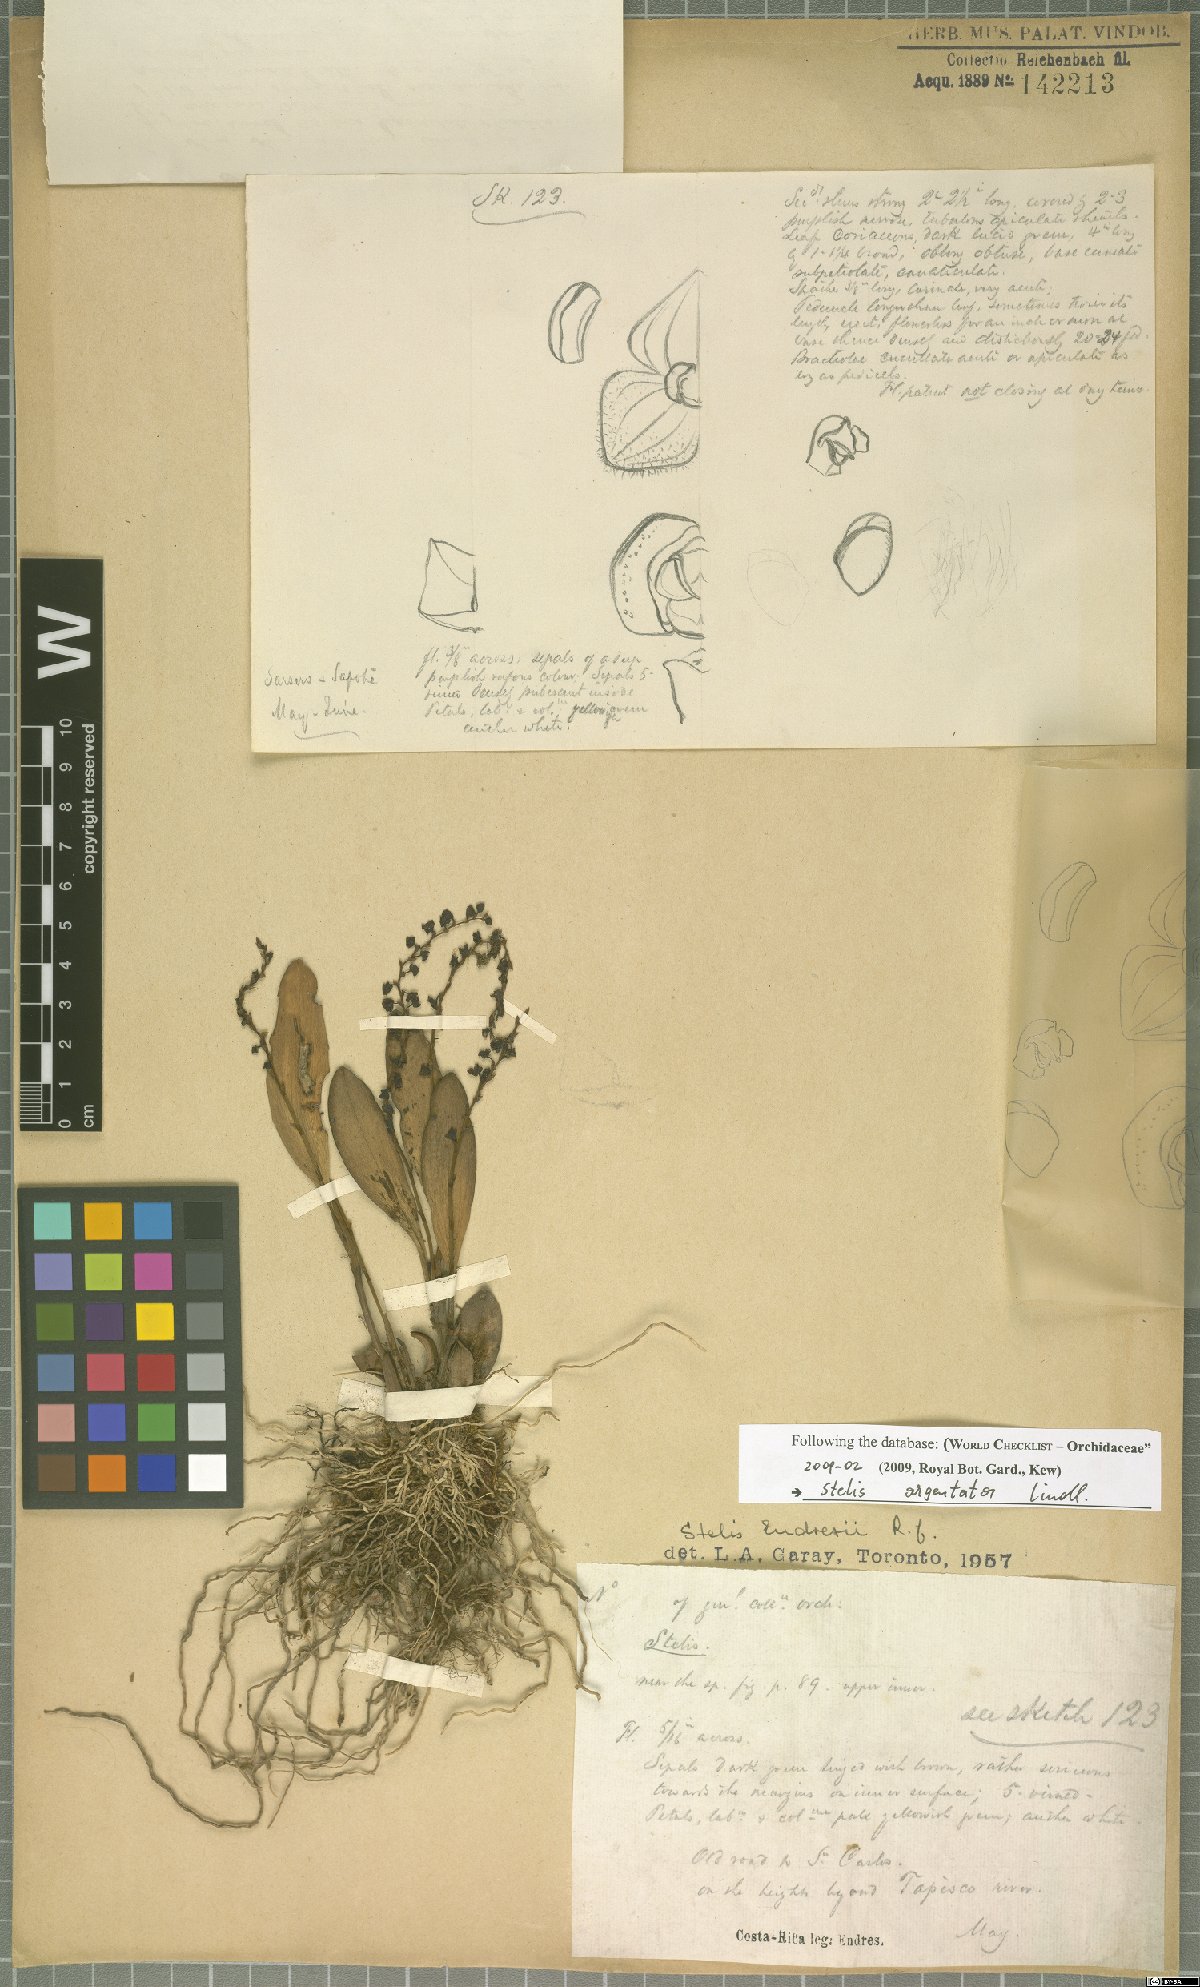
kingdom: Plantae
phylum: Tracheophyta
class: Liliopsida
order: Asparagales
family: Orchidaceae
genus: Stelis
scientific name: Stelis argentata
